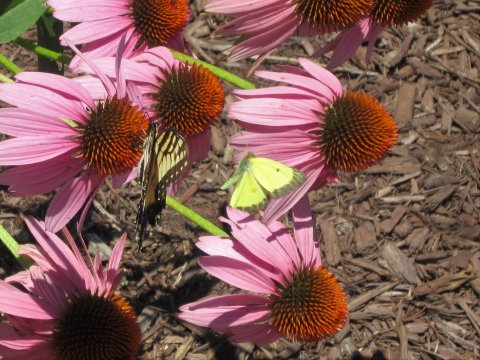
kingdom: Animalia
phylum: Arthropoda
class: Insecta
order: Lepidoptera
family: Pieridae
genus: Colias
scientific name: Colias eurytheme
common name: Orange Sulphur
